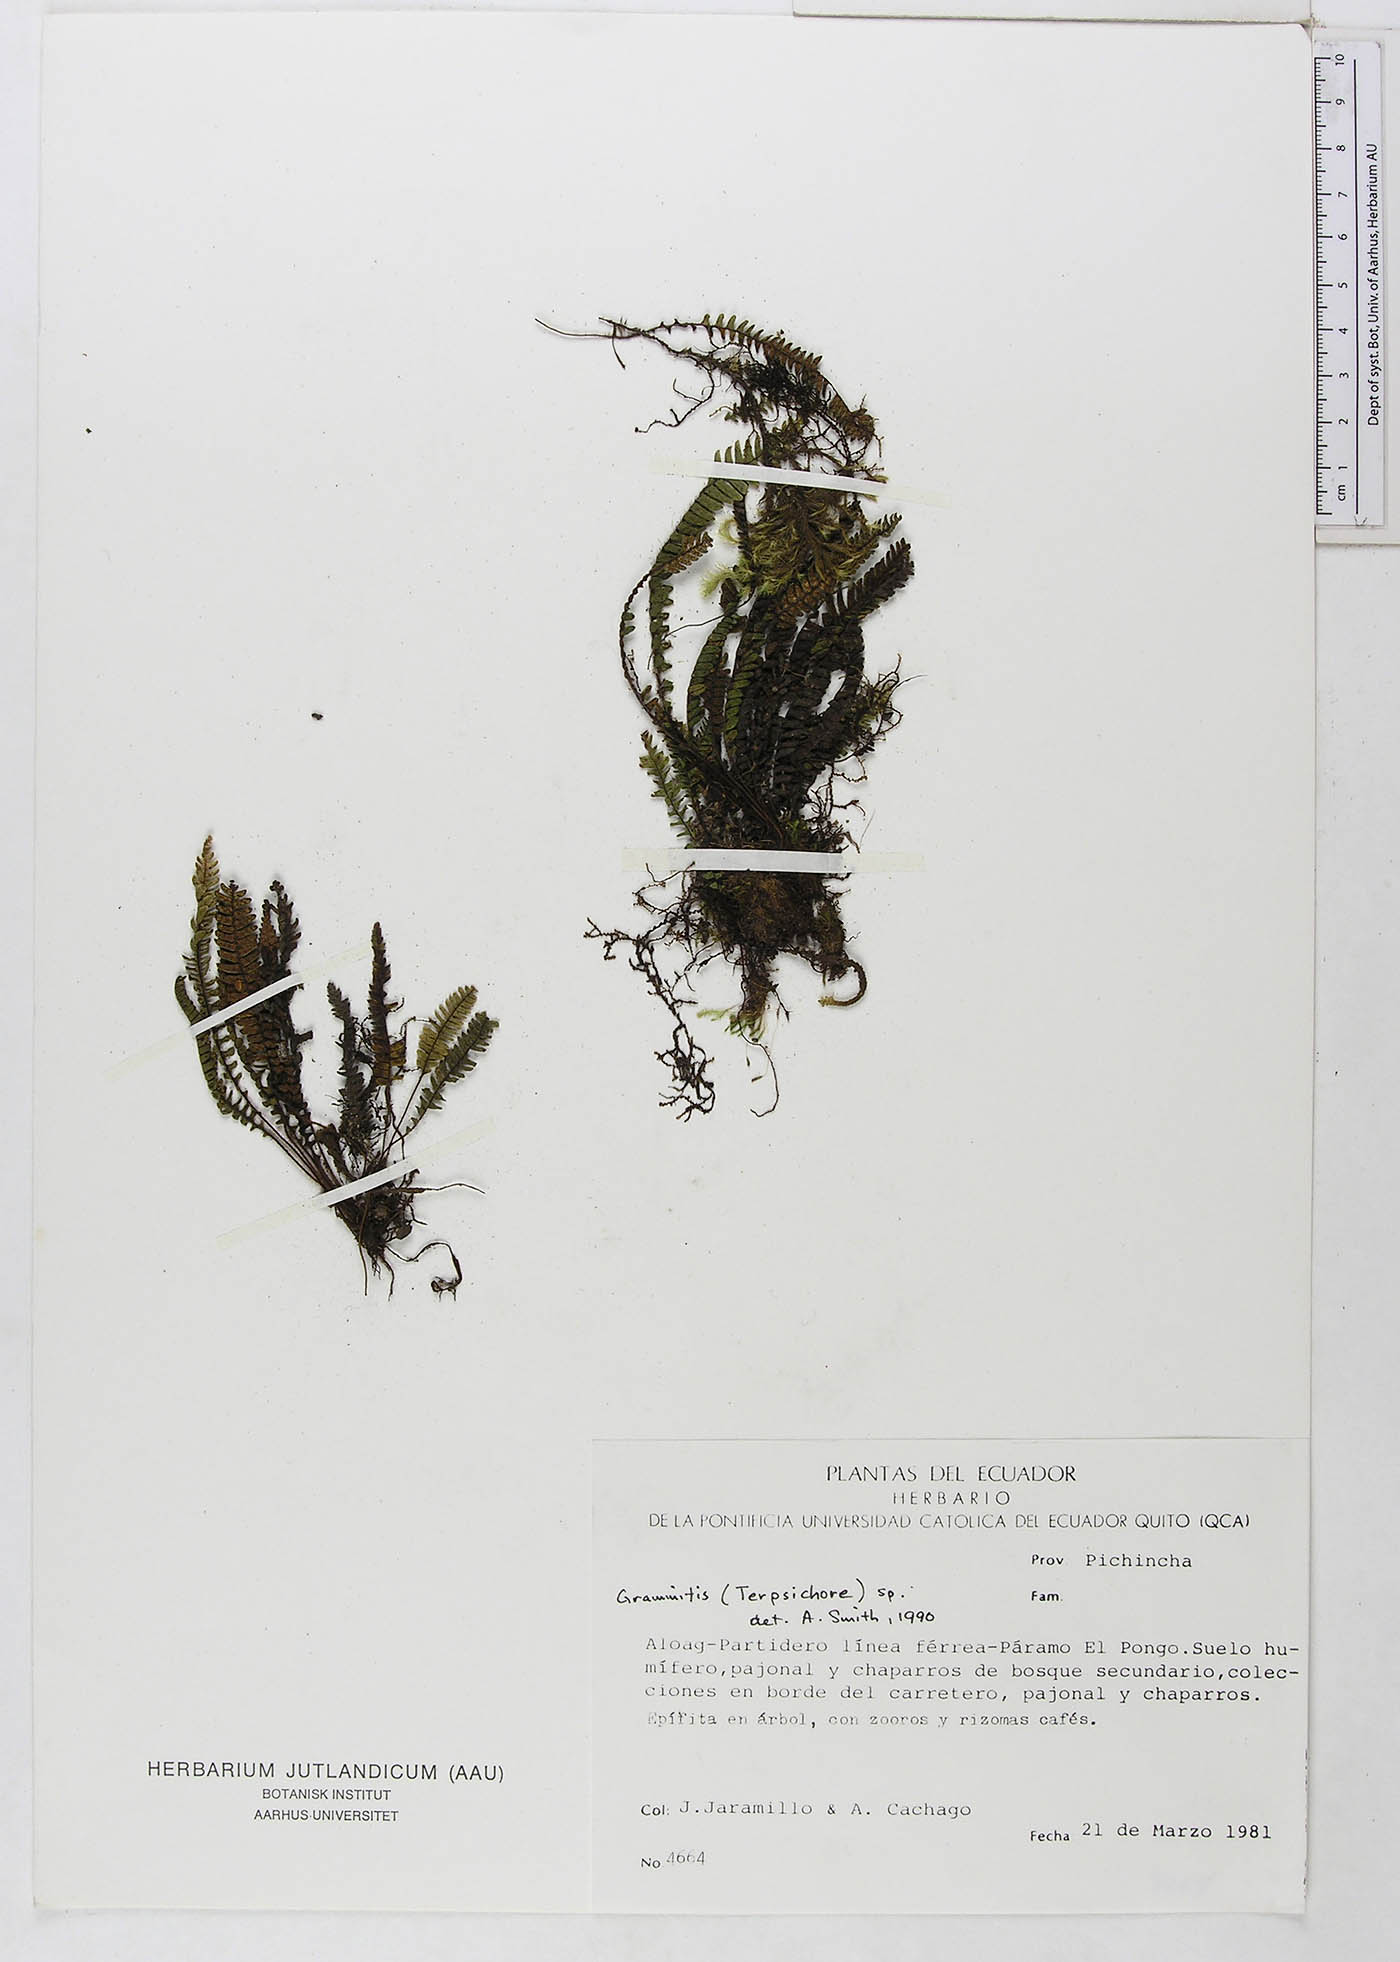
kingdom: Plantae
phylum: Tracheophyta
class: Polypodiopsida
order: Polypodiales
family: Polypodiaceae
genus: Ascogrammitis
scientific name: Ascogrammitis pichinchensis
